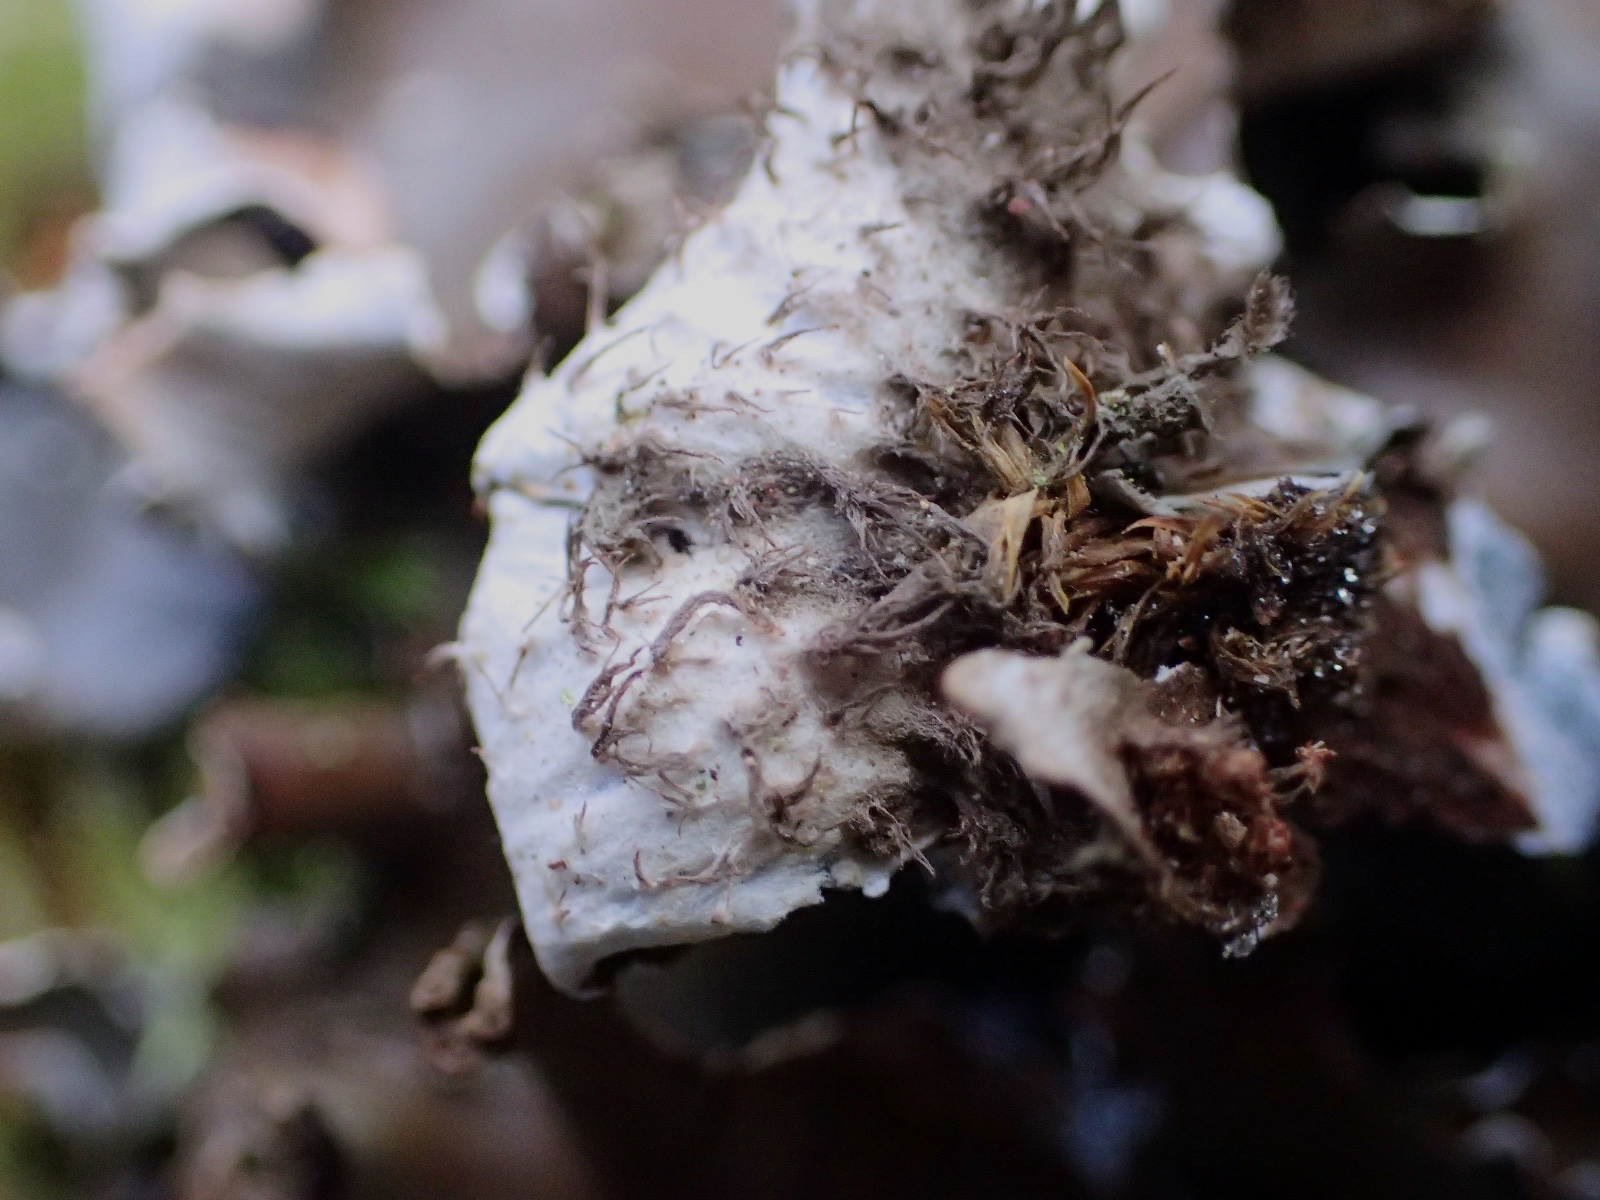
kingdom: Fungi
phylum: Ascomycota
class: Lecanoromycetes
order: Peltigerales
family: Peltigeraceae
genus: Peltigera
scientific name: Peltigera hymenina
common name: hinde-skjoldlav
